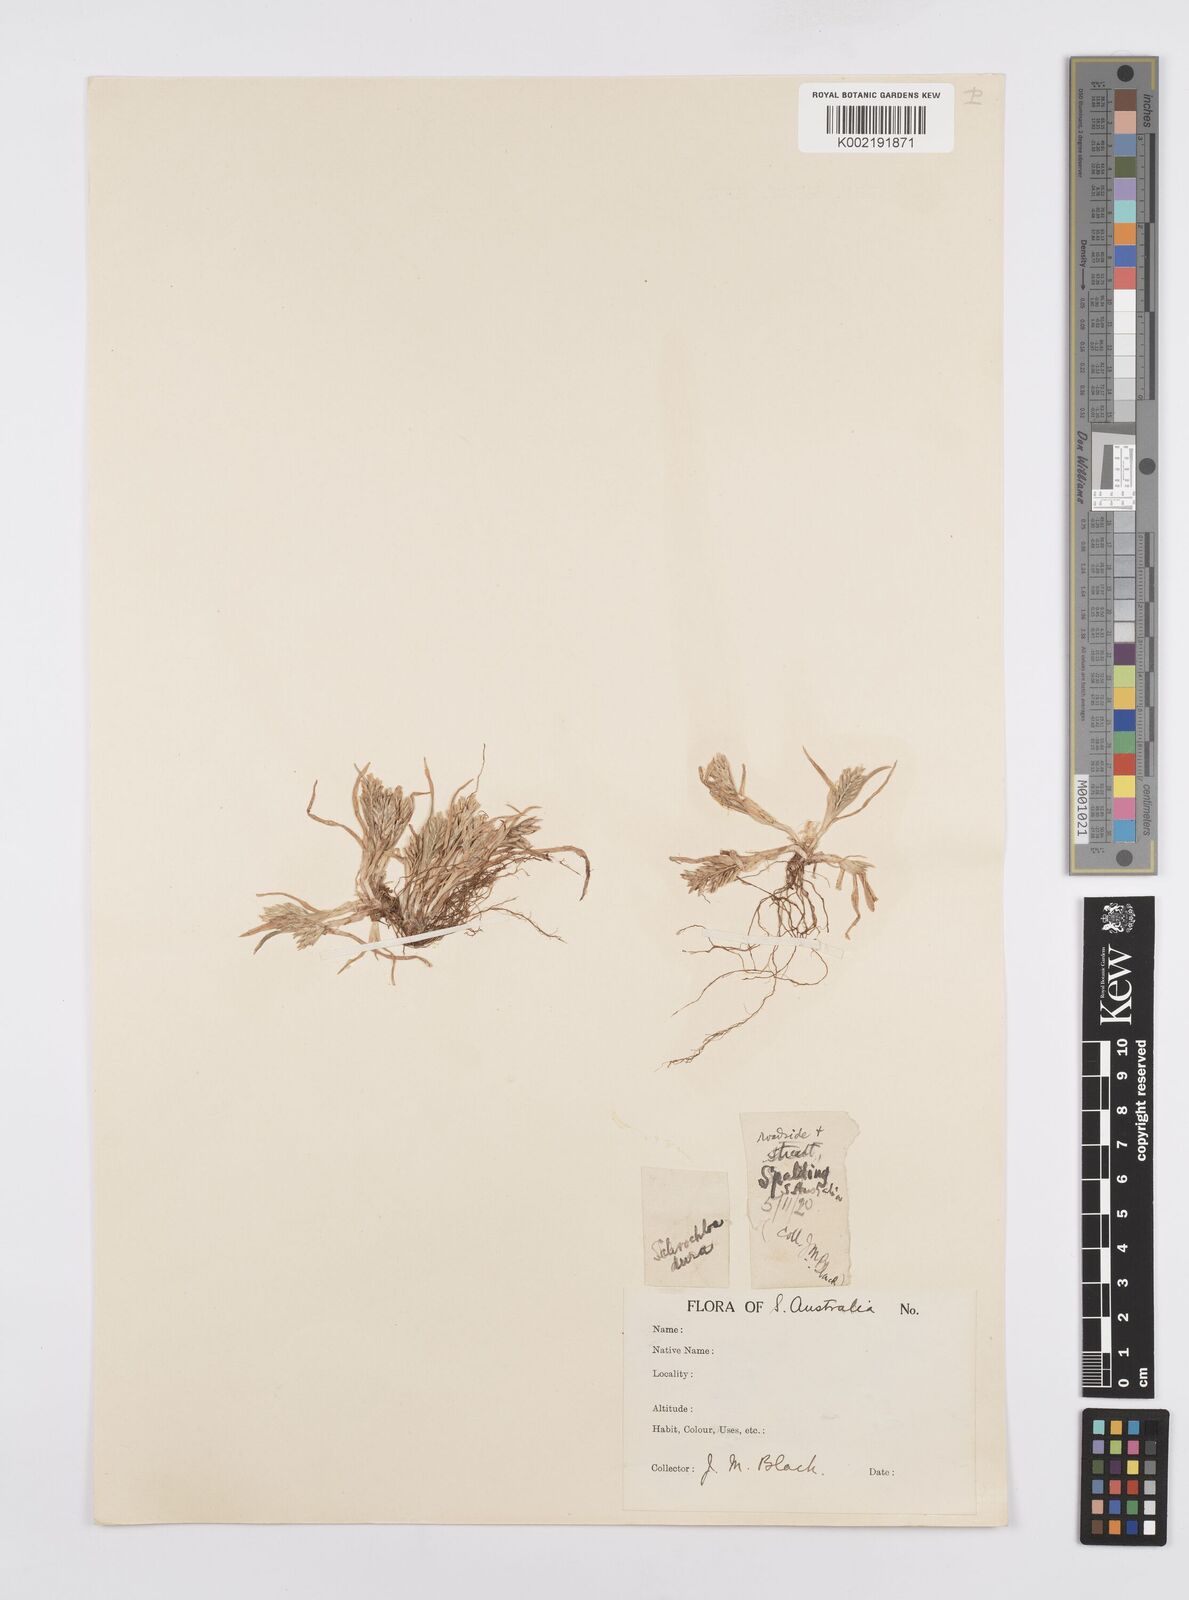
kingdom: Plantae
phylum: Tracheophyta
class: Liliopsida
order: Poales
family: Poaceae
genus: Sclerochloa
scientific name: Sclerochloa dura
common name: Common hardgrass
